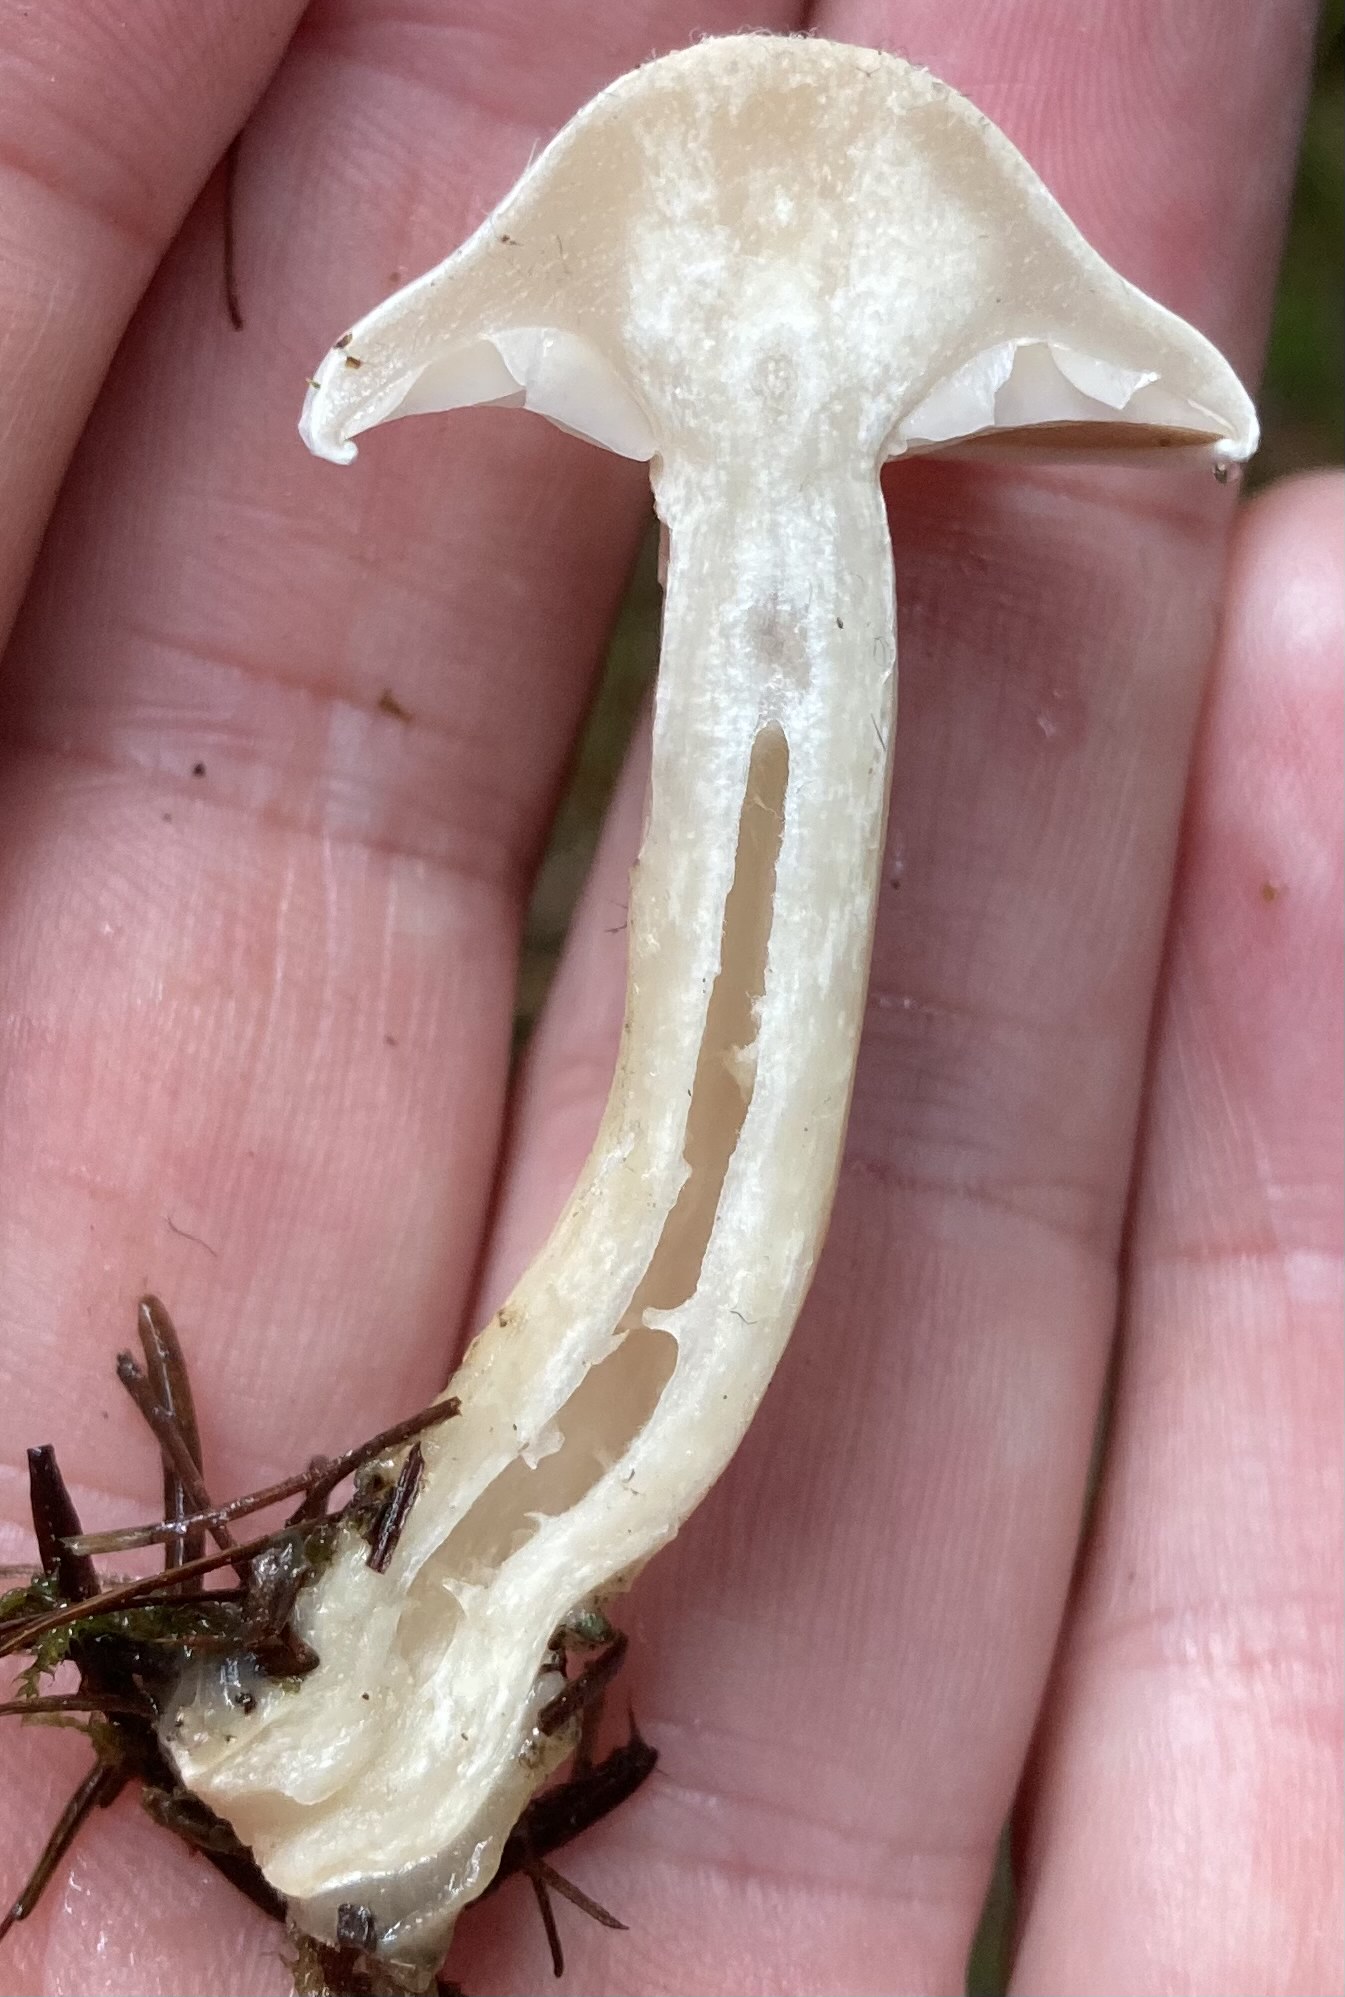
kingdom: Fungi
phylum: Basidiomycota
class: Agaricomycetes
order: Agaricales
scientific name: Agaricales
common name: champignonordenen
